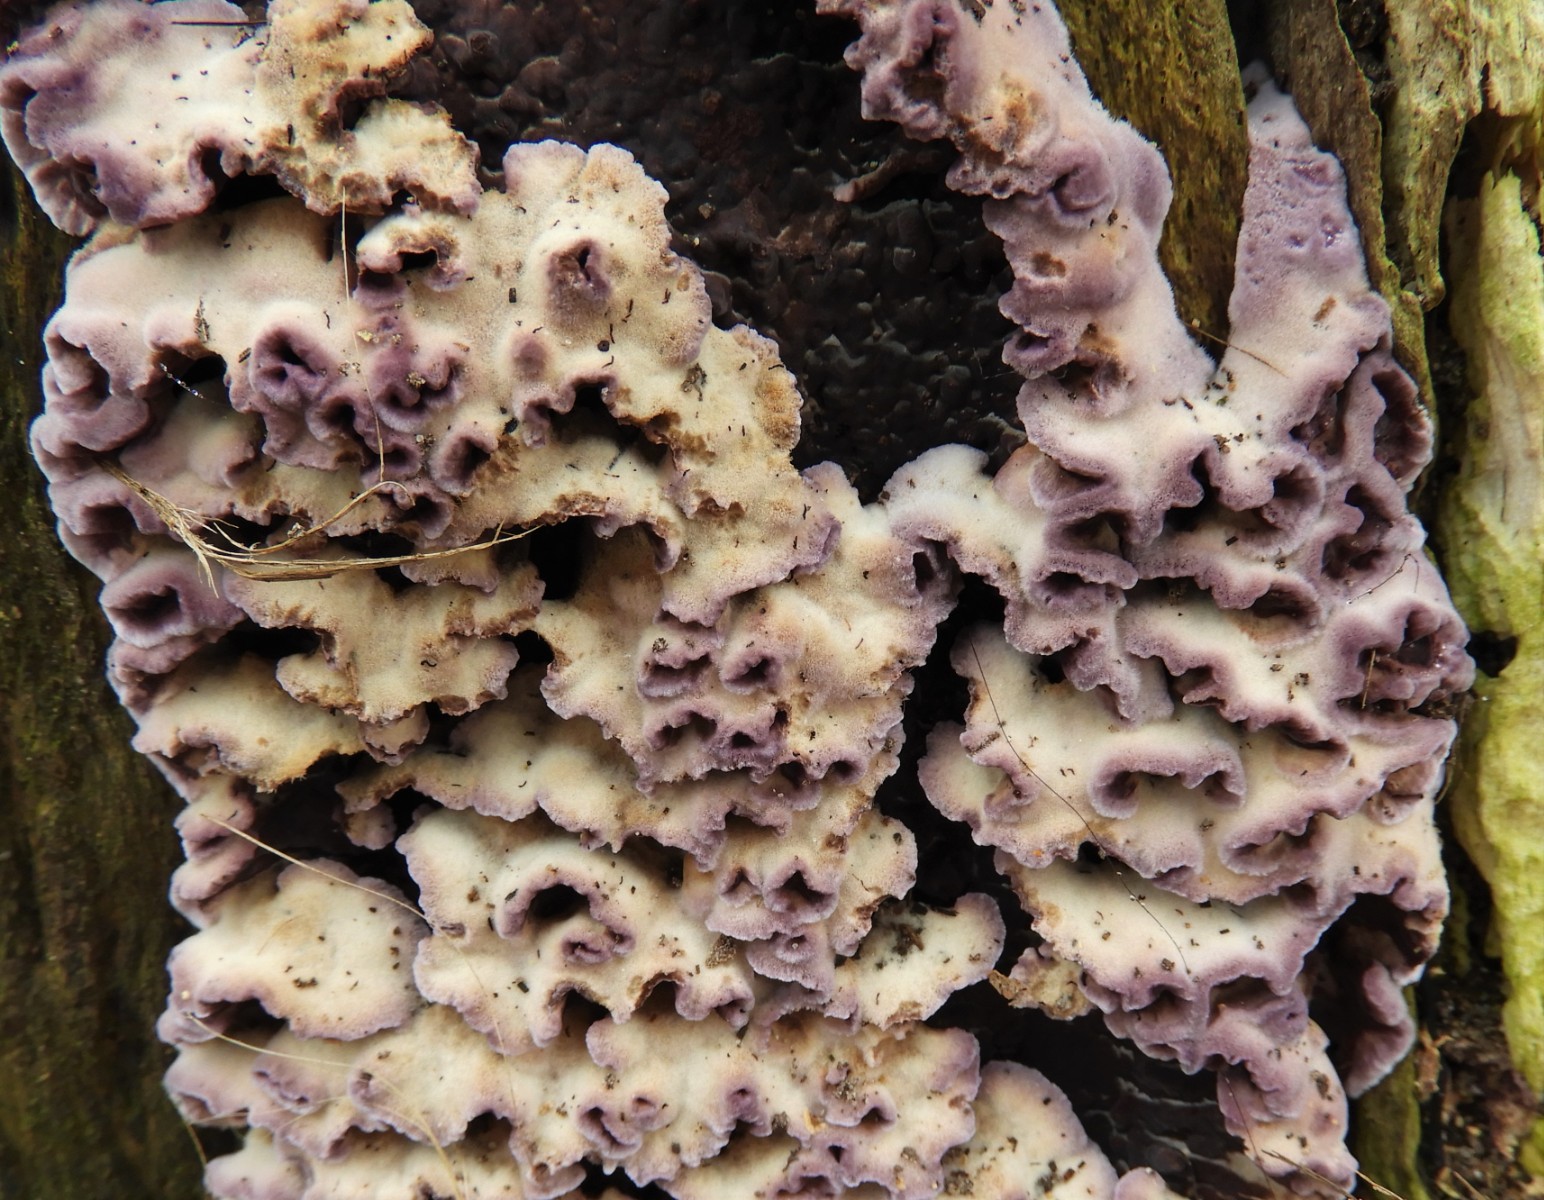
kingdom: Fungi
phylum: Basidiomycota
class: Agaricomycetes
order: Agaricales
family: Cyphellaceae
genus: Chondrostereum
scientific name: Chondrostereum purpureum
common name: purpurlædersvamp
